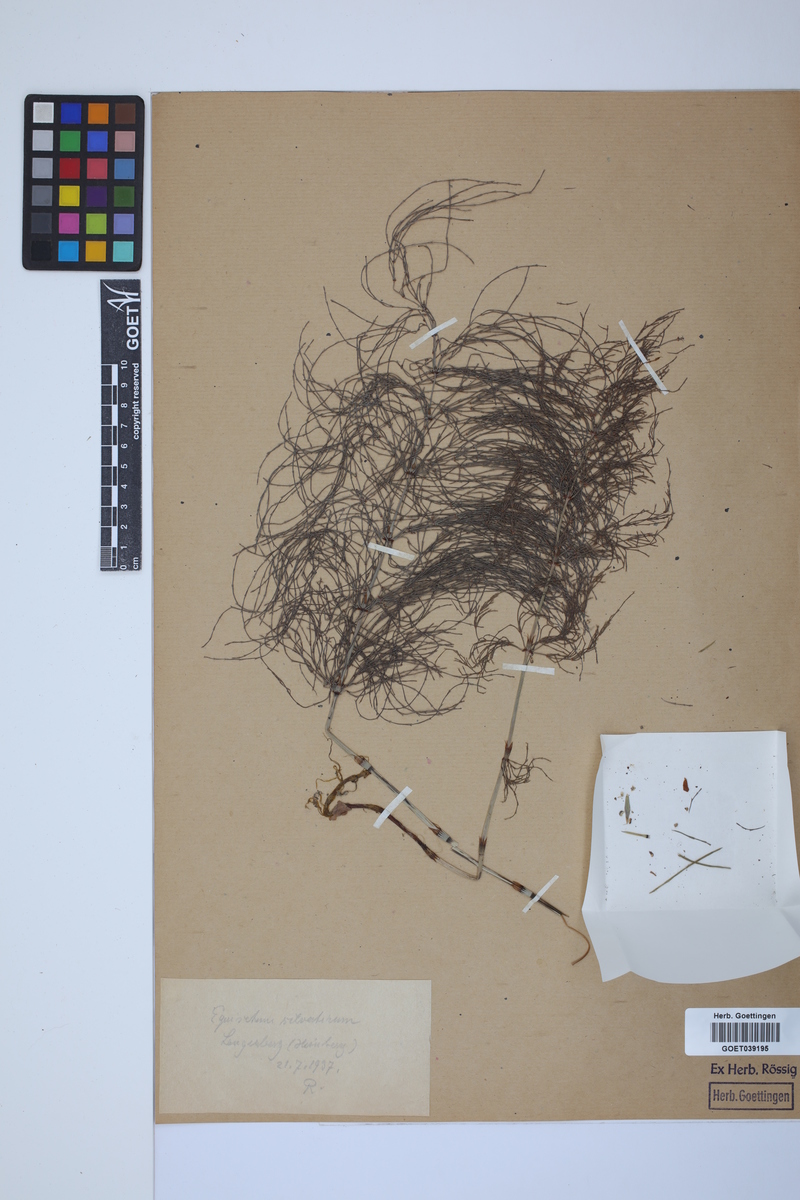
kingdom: Plantae
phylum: Tracheophyta
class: Polypodiopsida
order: Equisetales
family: Equisetaceae
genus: Equisetum
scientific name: Equisetum sylvaticum
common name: Wood horsetail
